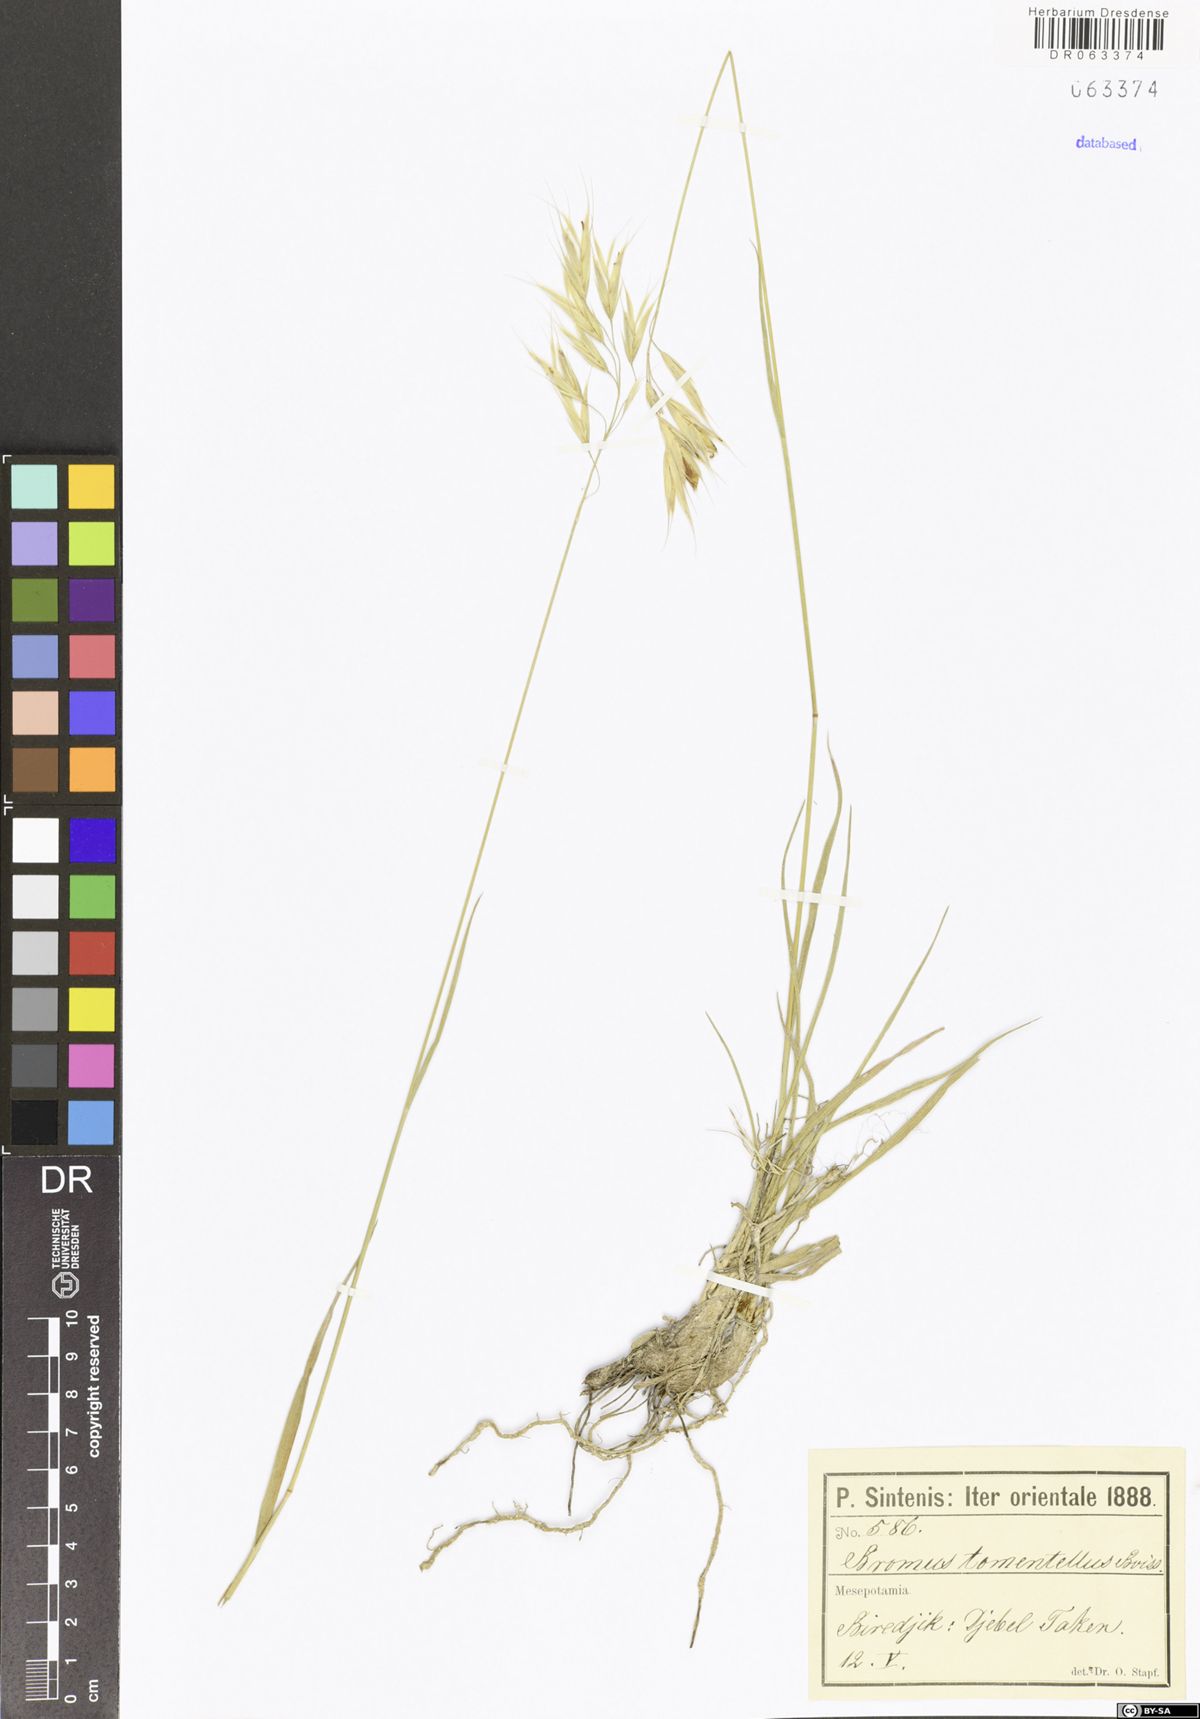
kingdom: Plantae
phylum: Tracheophyta
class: Liliopsida
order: Poales
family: Poaceae
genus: Bromus
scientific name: Bromus tomentellus
